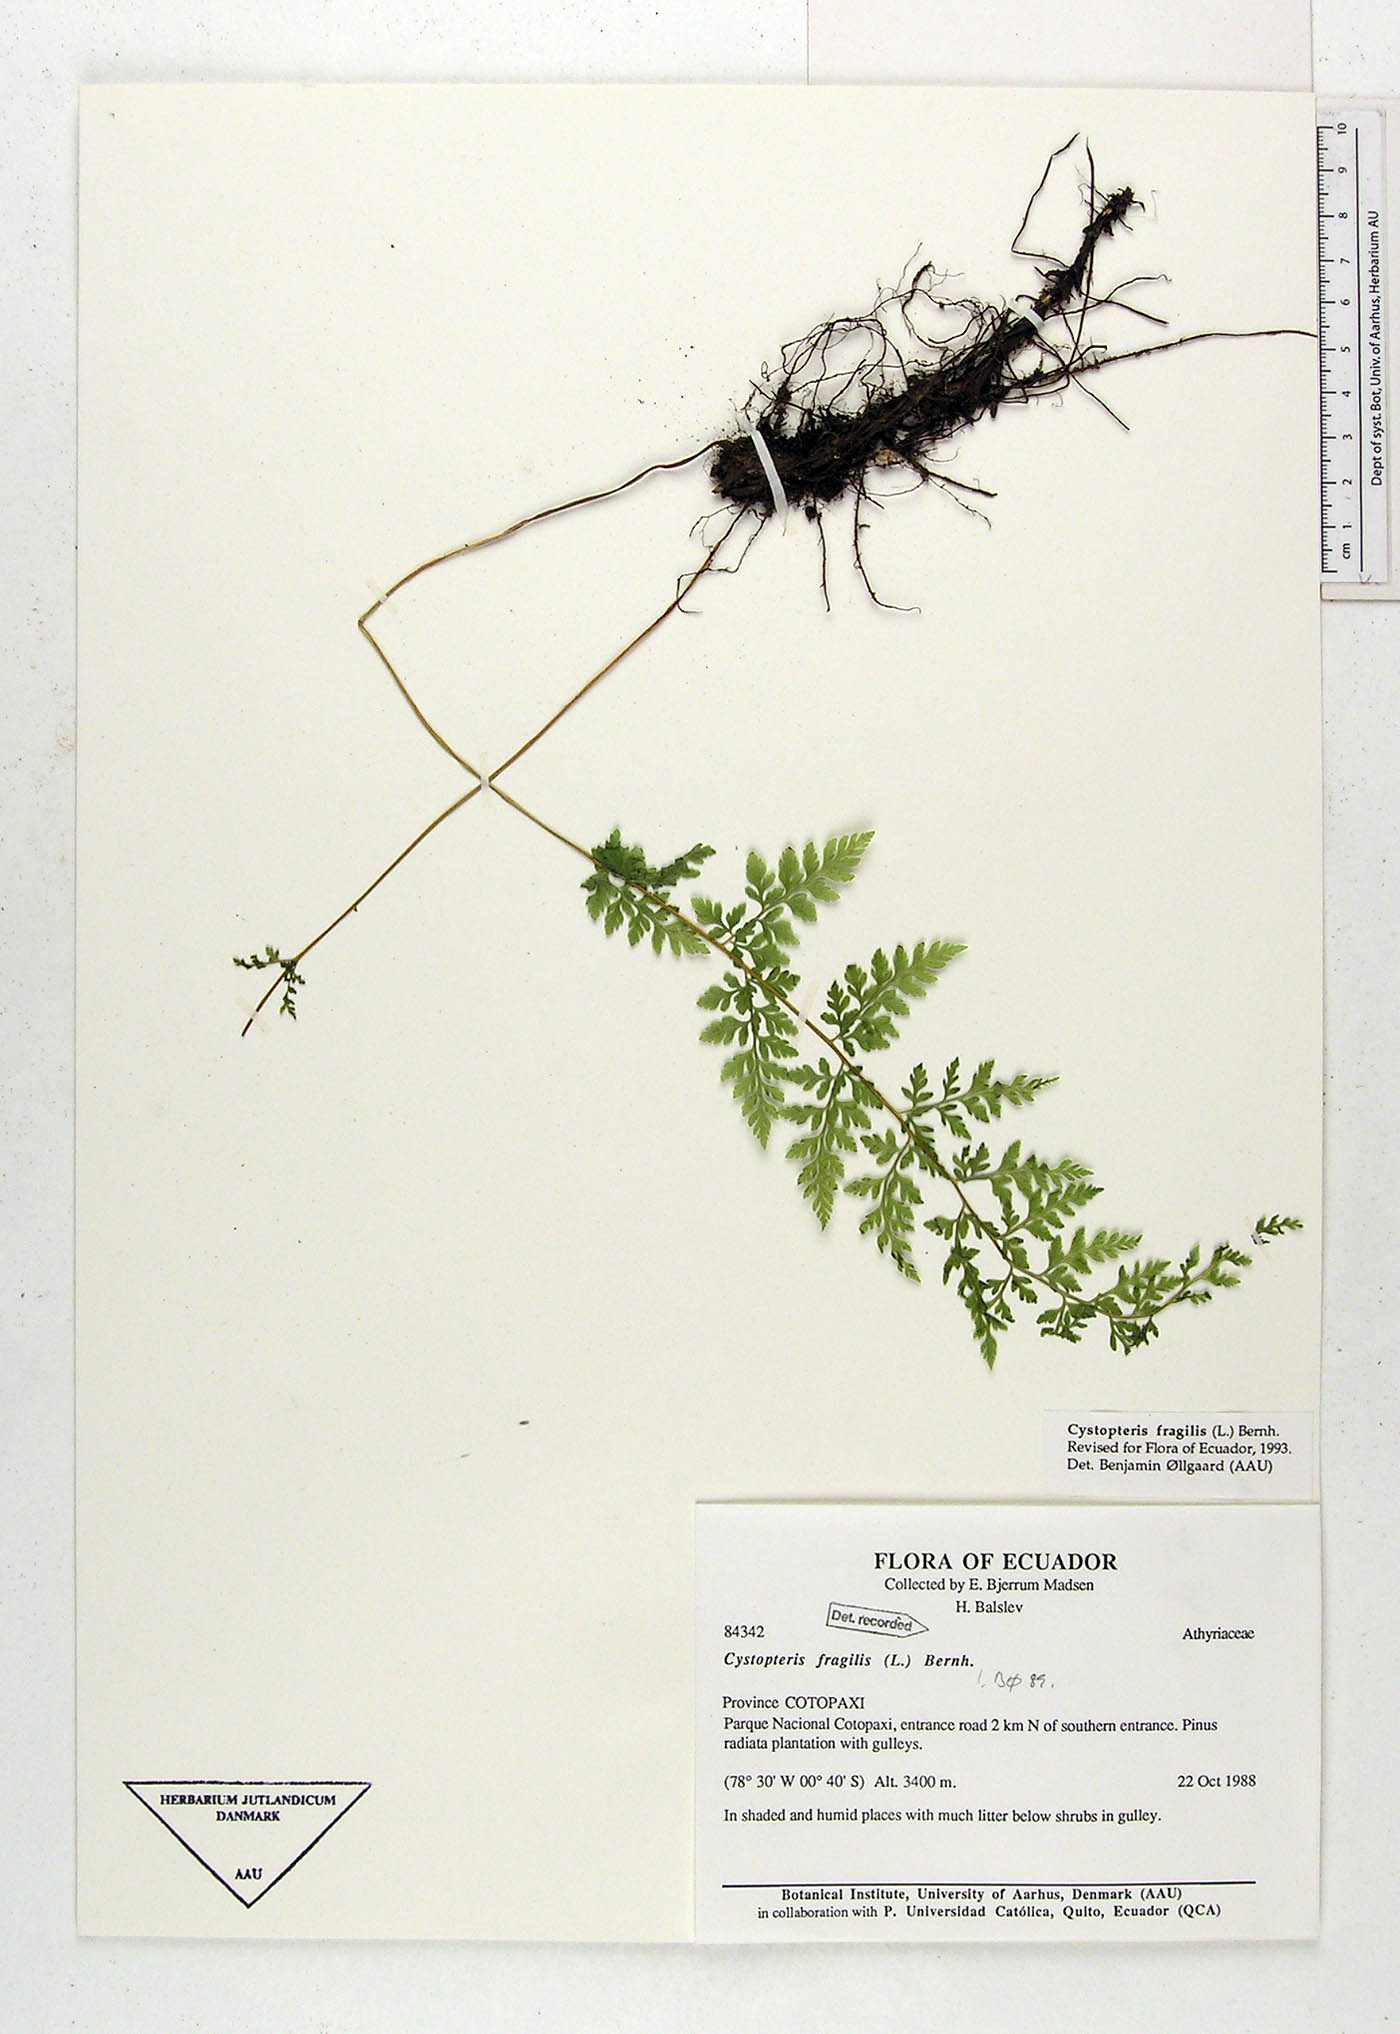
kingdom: Plantae
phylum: Tracheophyta
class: Polypodiopsida
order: Polypodiales
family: Cystopteridaceae
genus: Cystopteris
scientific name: Cystopteris fragilis
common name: Brittle bladder fern
